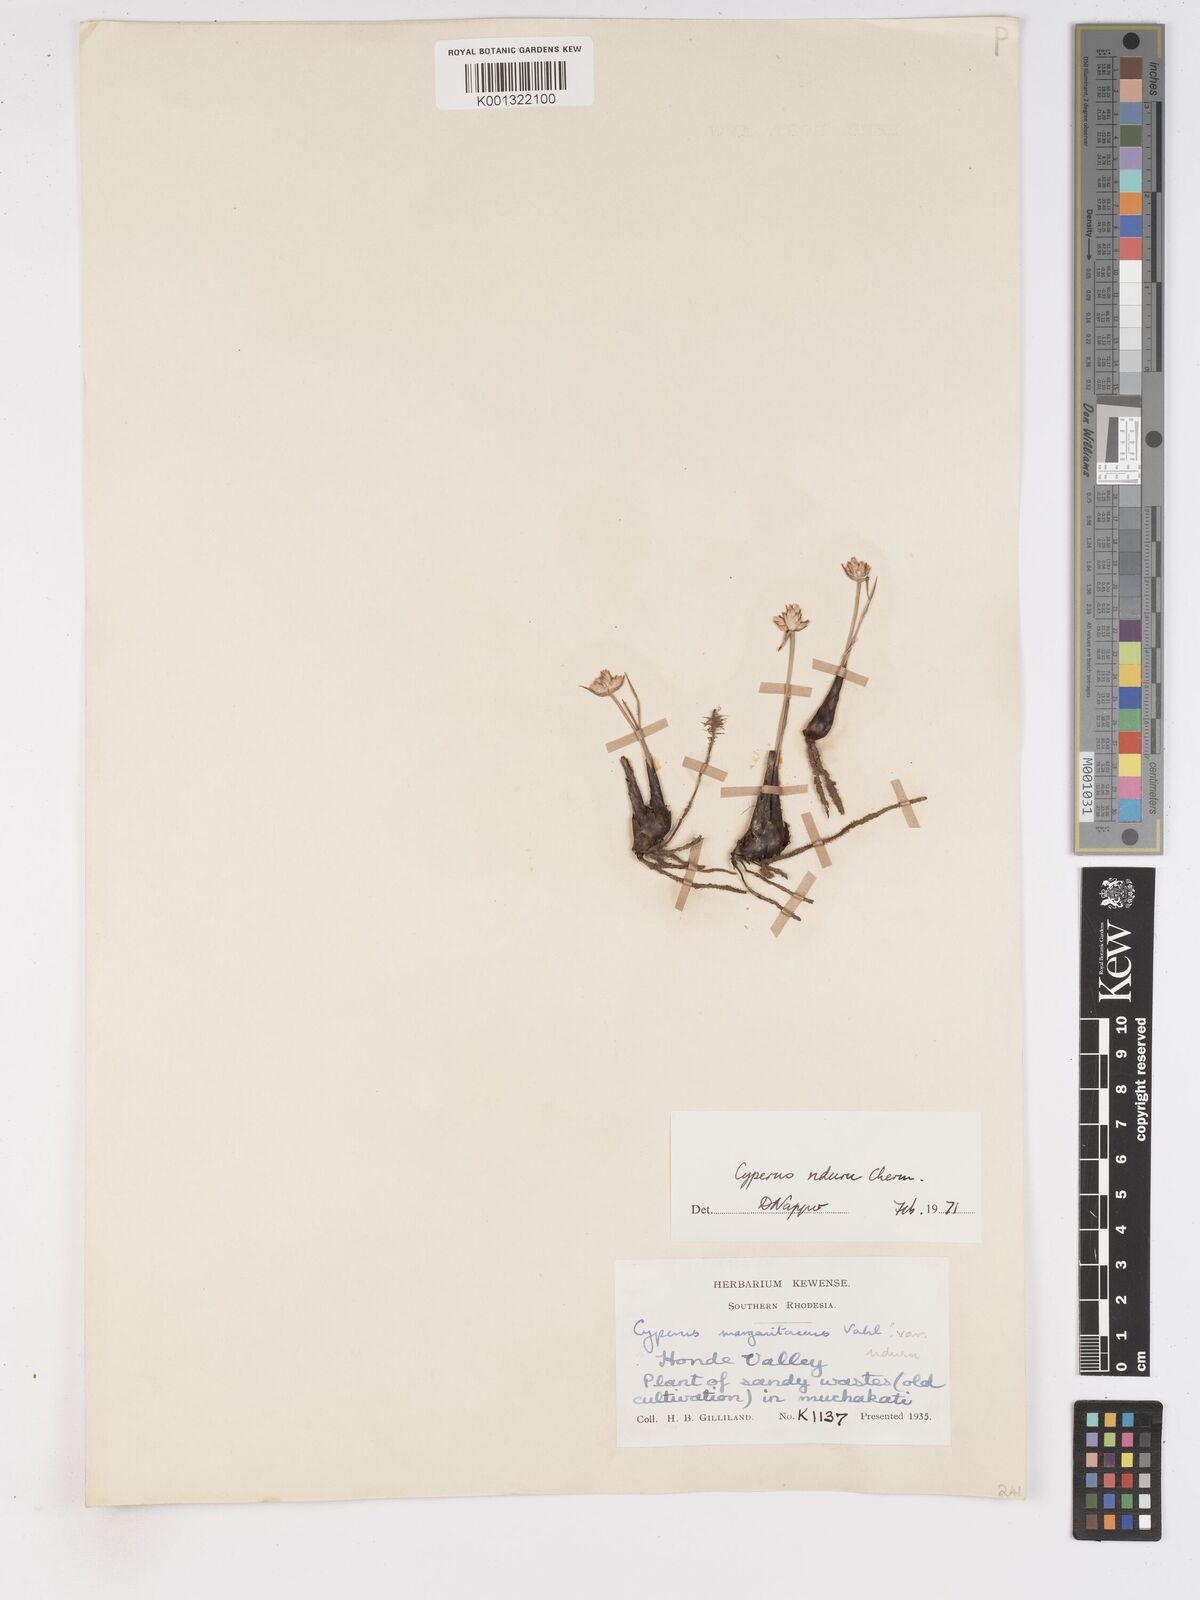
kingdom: Plantae
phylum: Tracheophyta
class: Liliopsida
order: Poales
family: Cyperaceae
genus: Cyperus
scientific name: Cyperus nduru
